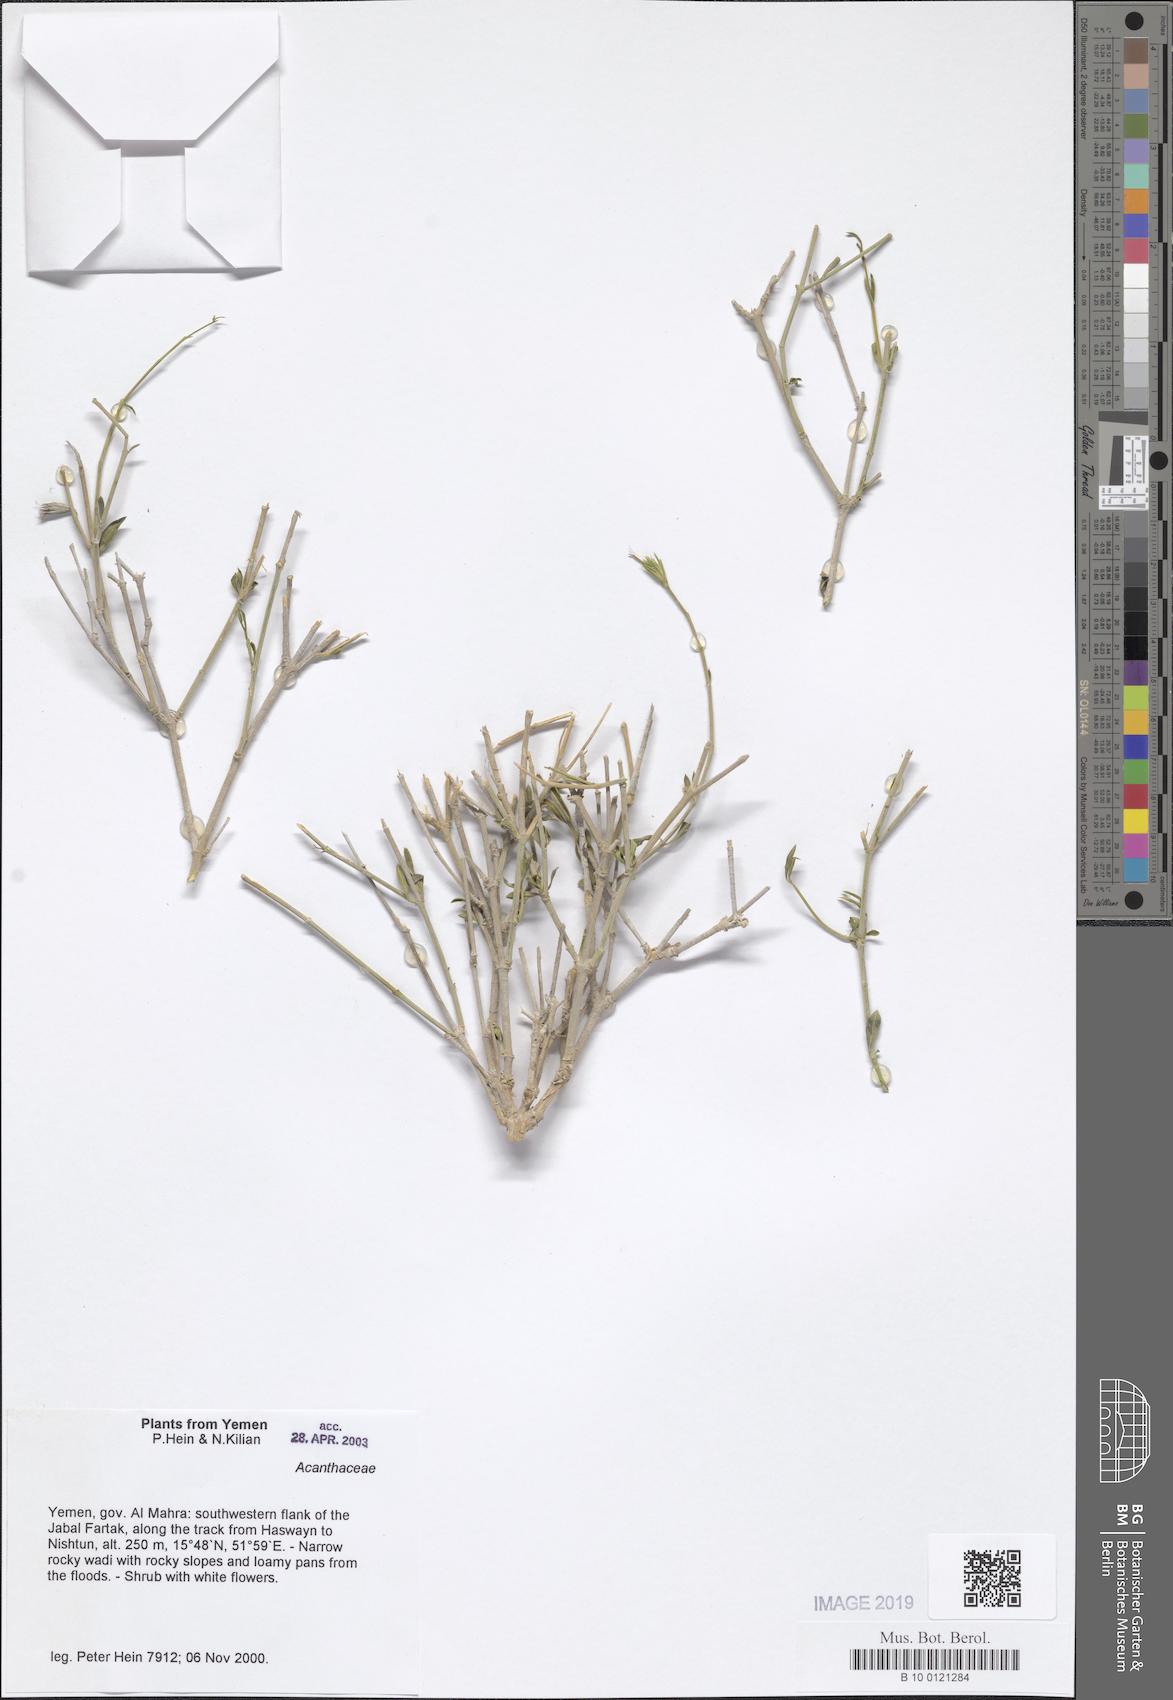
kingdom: Plantae
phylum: Tracheophyta
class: Magnoliopsida
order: Lamiales
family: Acanthaceae
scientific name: Acanthaceae
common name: Acanthaceae
